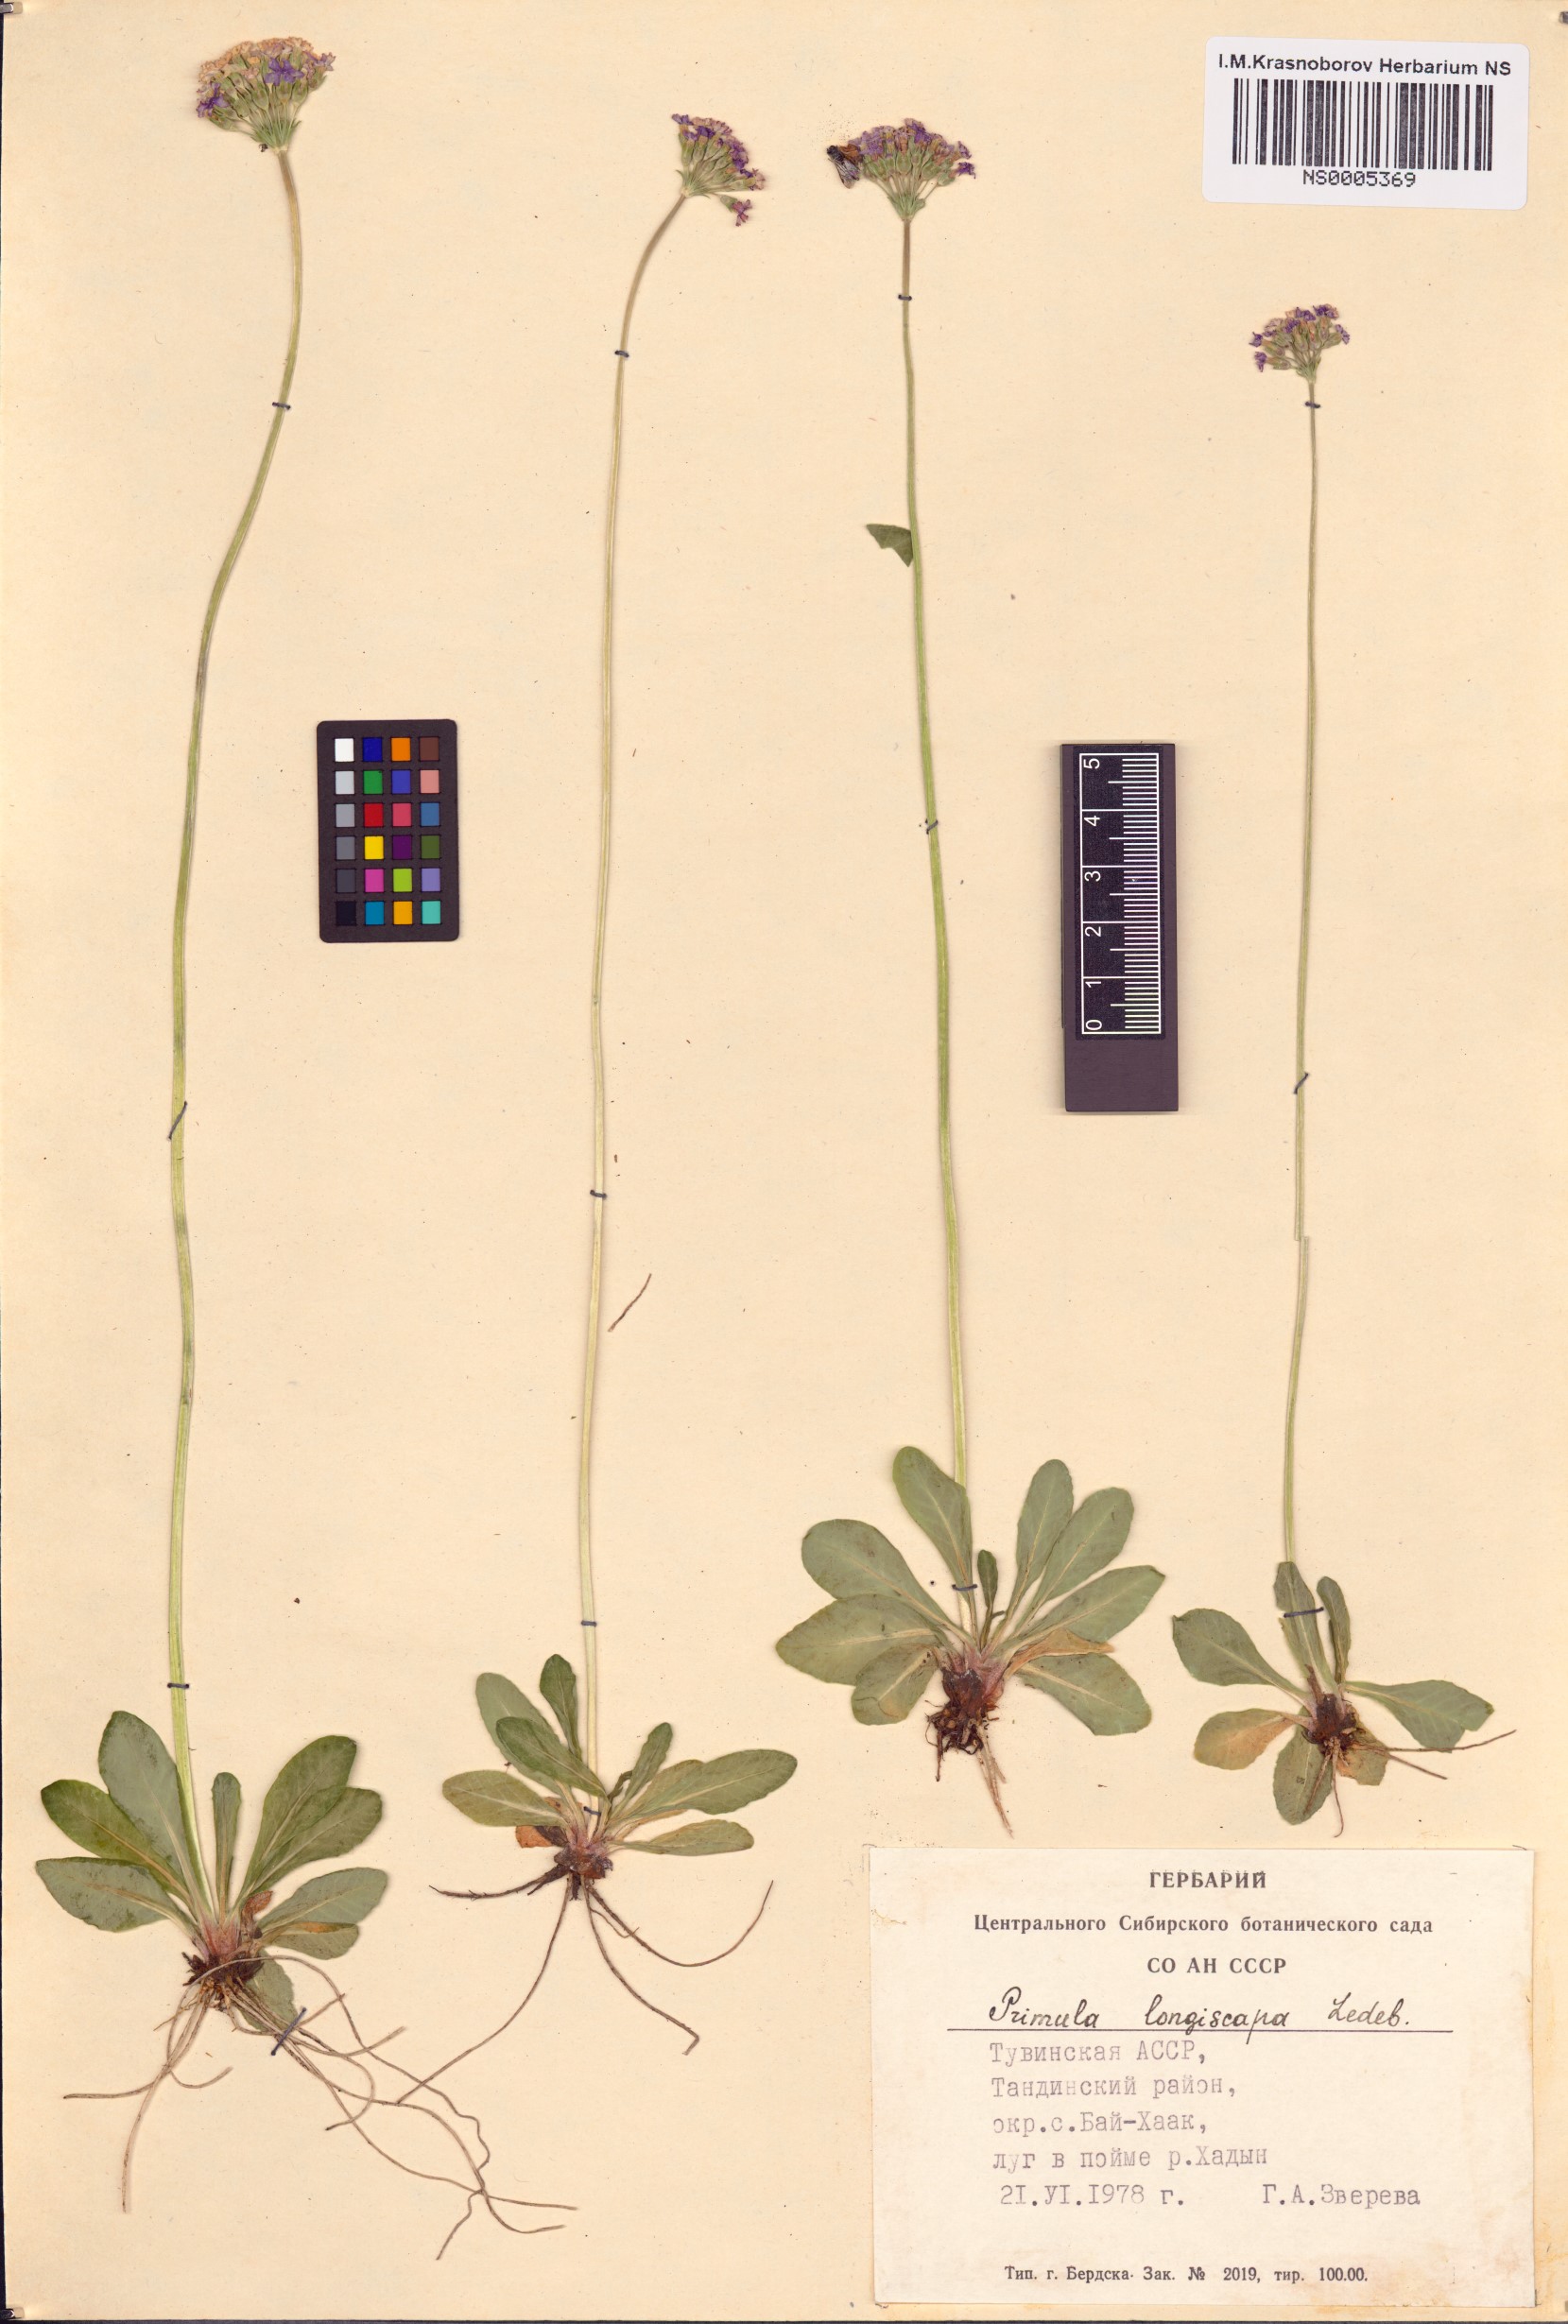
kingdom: Plantae
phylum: Tracheophyta
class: Magnoliopsida
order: Ericales
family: Primulaceae
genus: Primula
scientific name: Primula longiscapa
